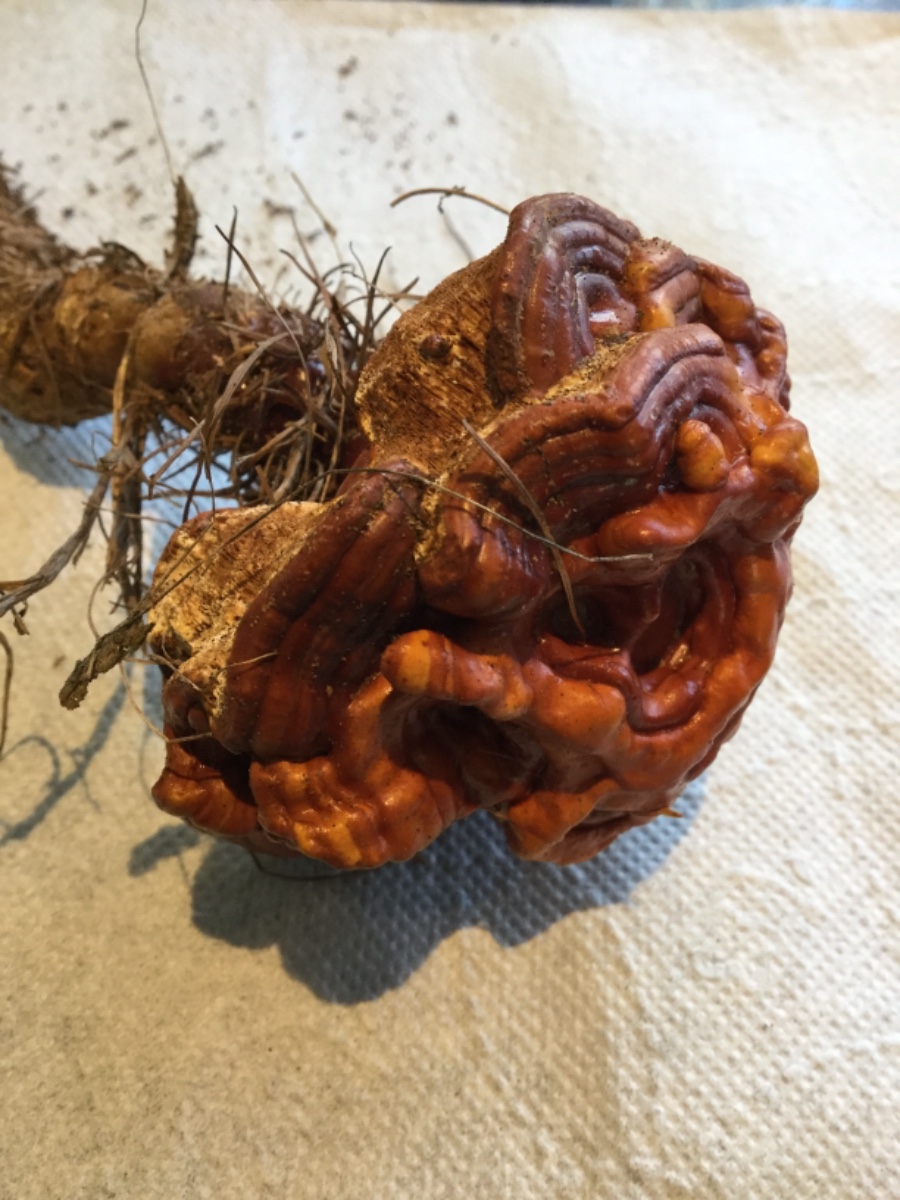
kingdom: Fungi
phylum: Basidiomycota
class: Agaricomycetes
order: Polyporales
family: Polyporaceae
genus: Ganoderma
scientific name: Ganoderma lucidum
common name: skinnende lakporesvamp
